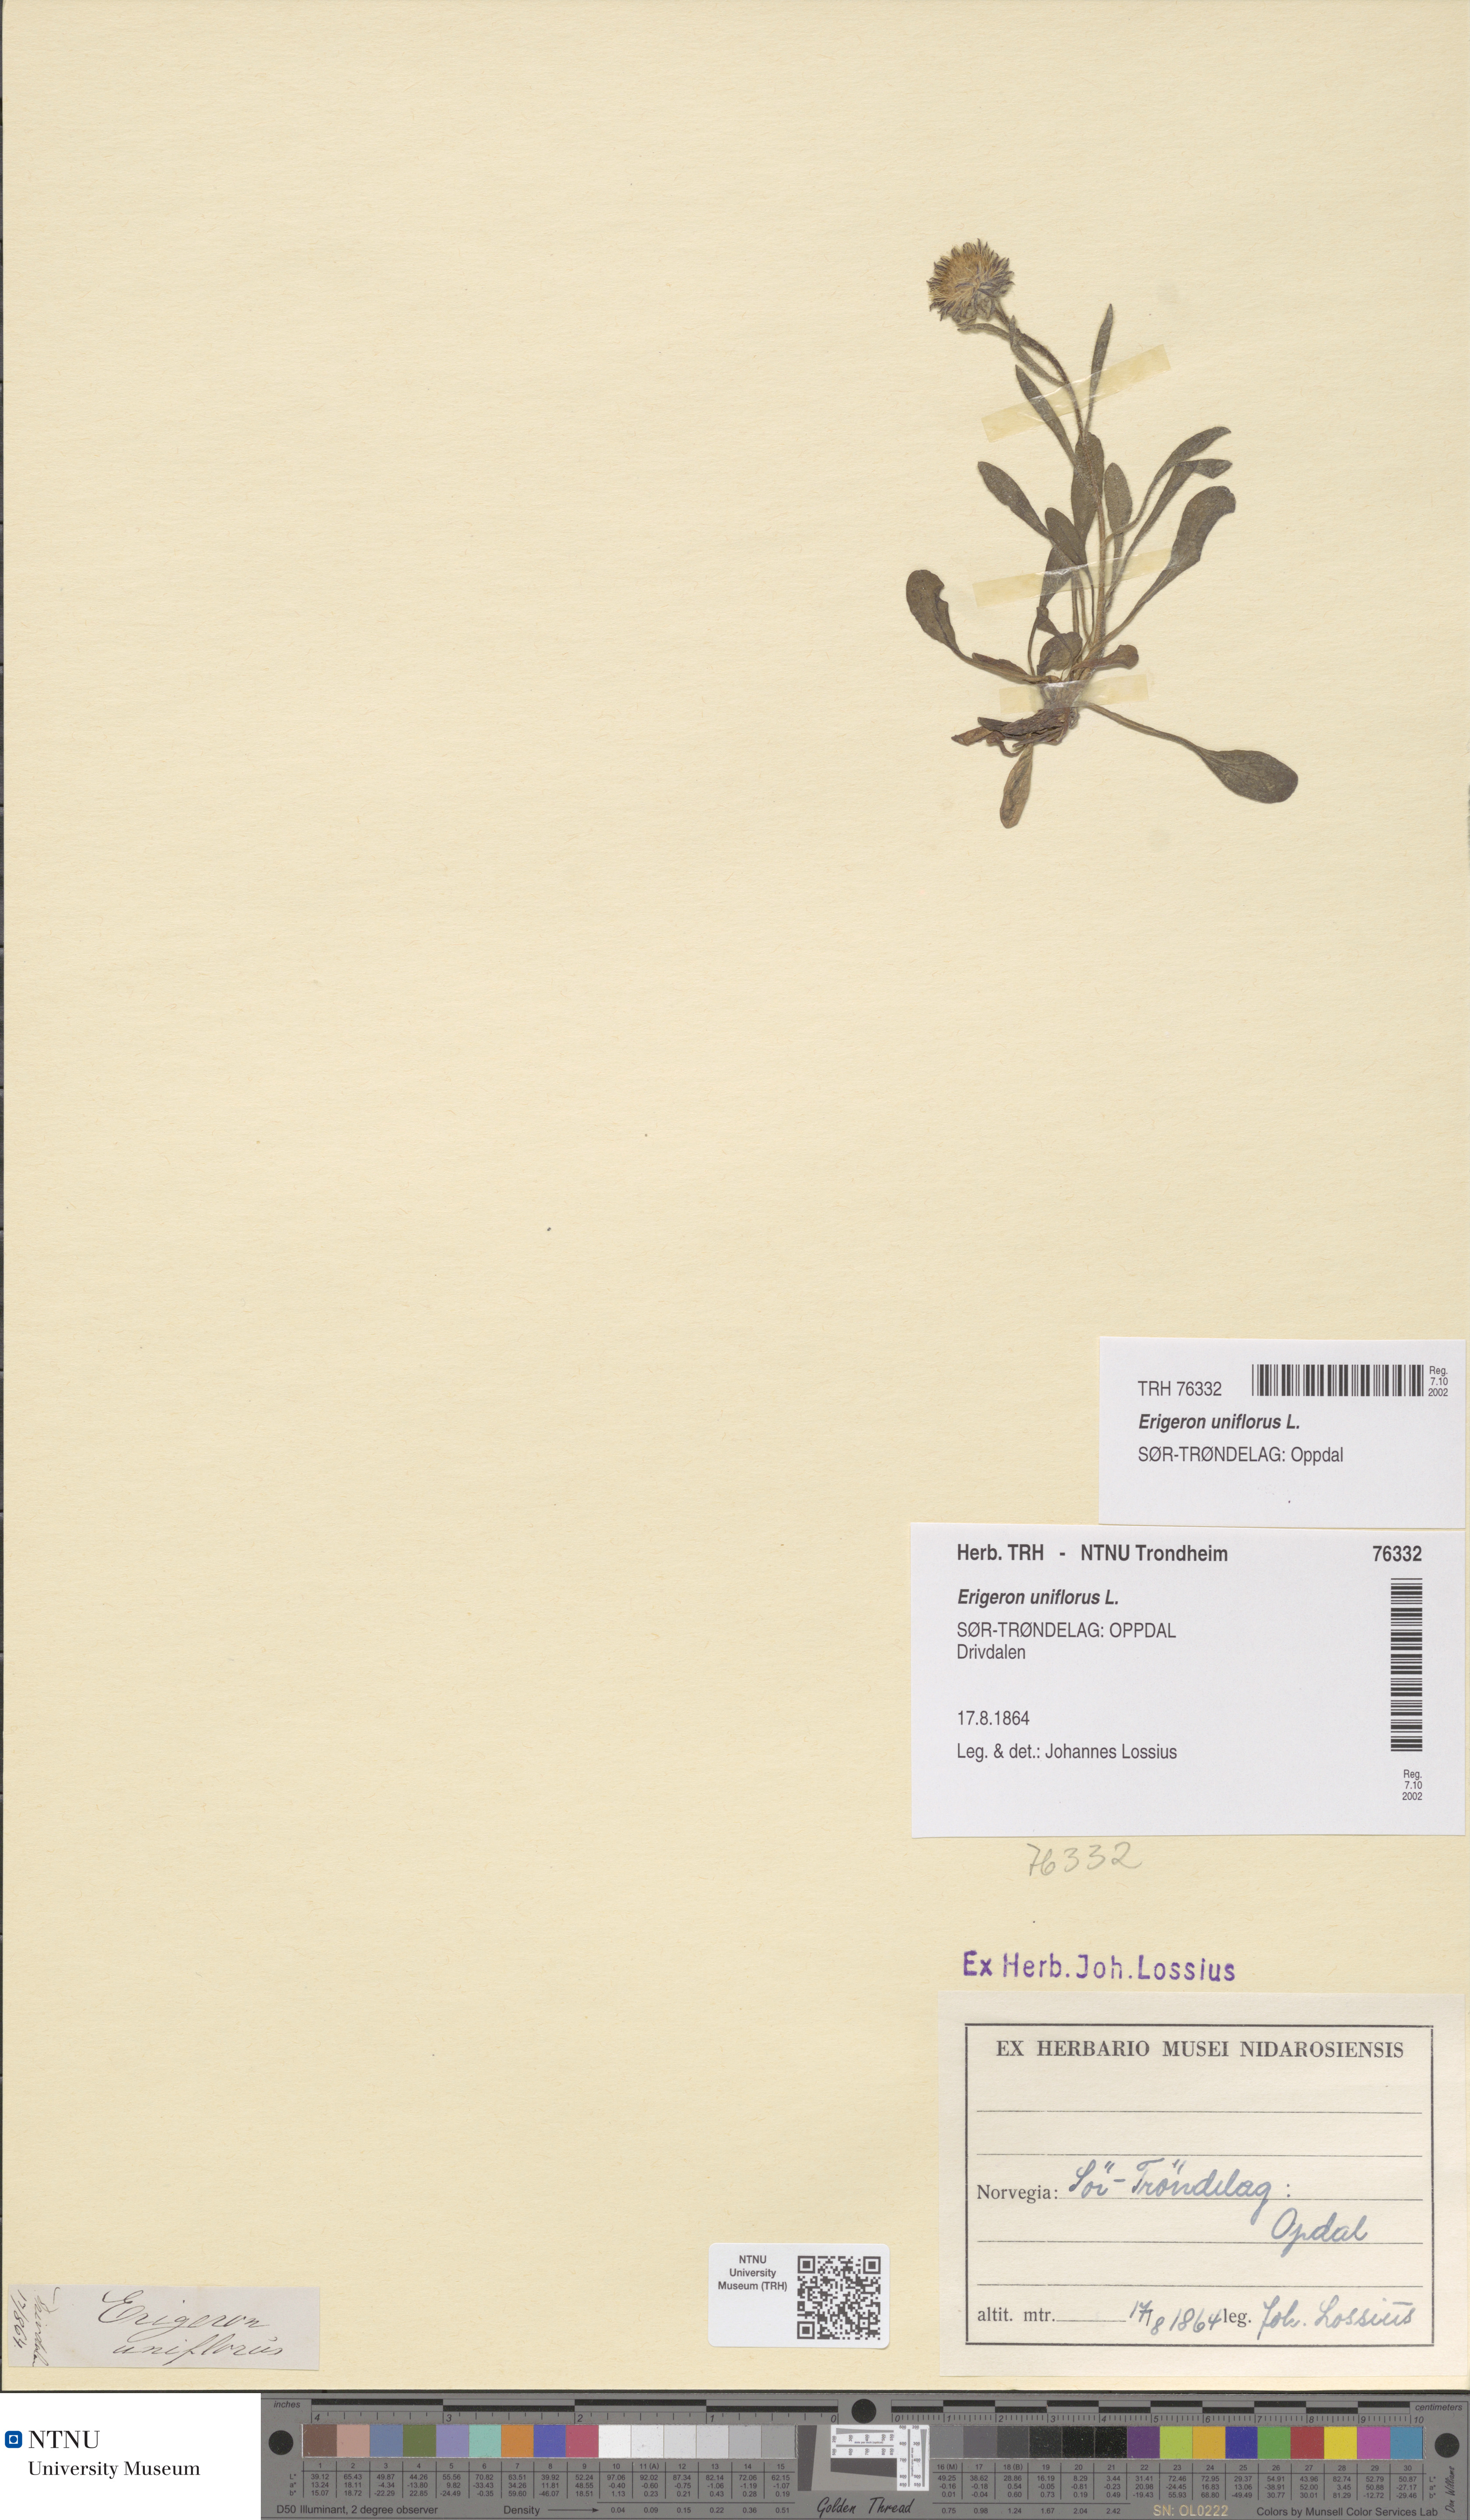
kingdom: Plantae
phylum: Tracheophyta
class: Magnoliopsida
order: Asterales
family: Asteraceae
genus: Erigeron
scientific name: Erigeron uniflorus
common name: Northern daisy
